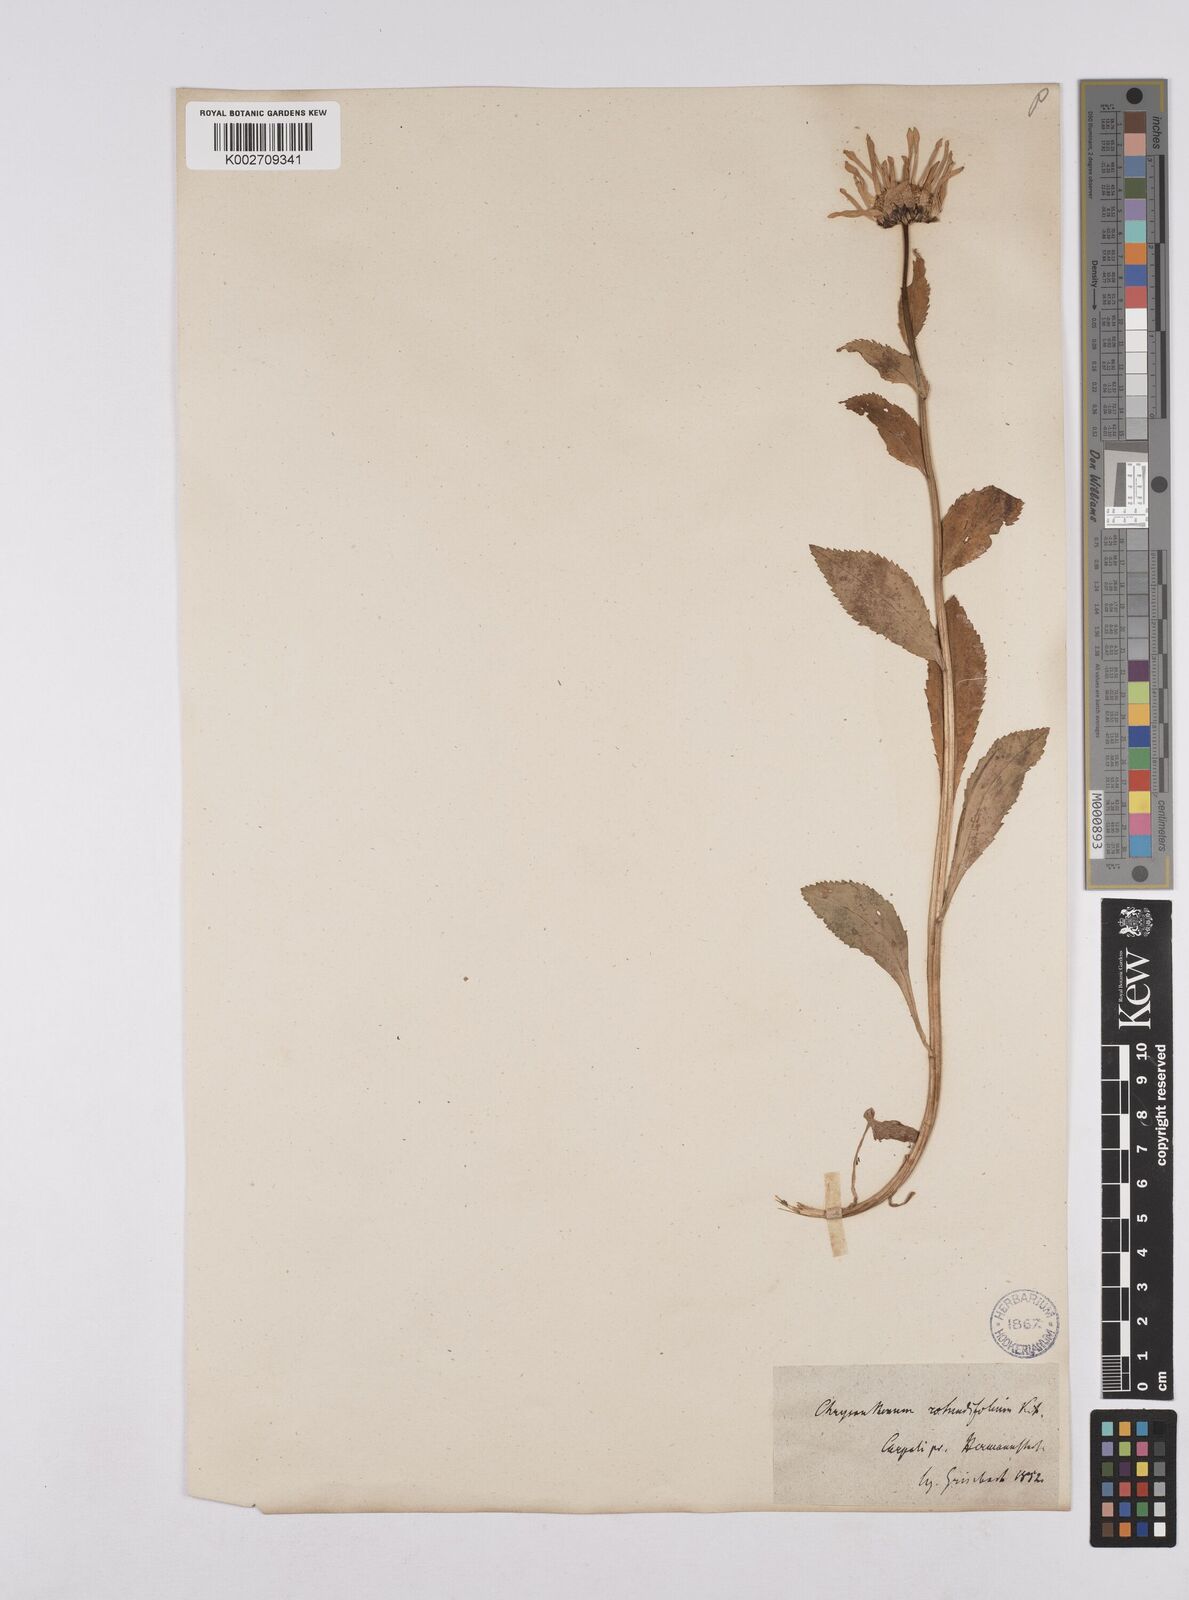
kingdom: Plantae
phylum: Tracheophyta
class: Magnoliopsida
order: Asterales
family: Asteraceae
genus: Leucanthemum
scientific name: Leucanthemum rotundifolium
